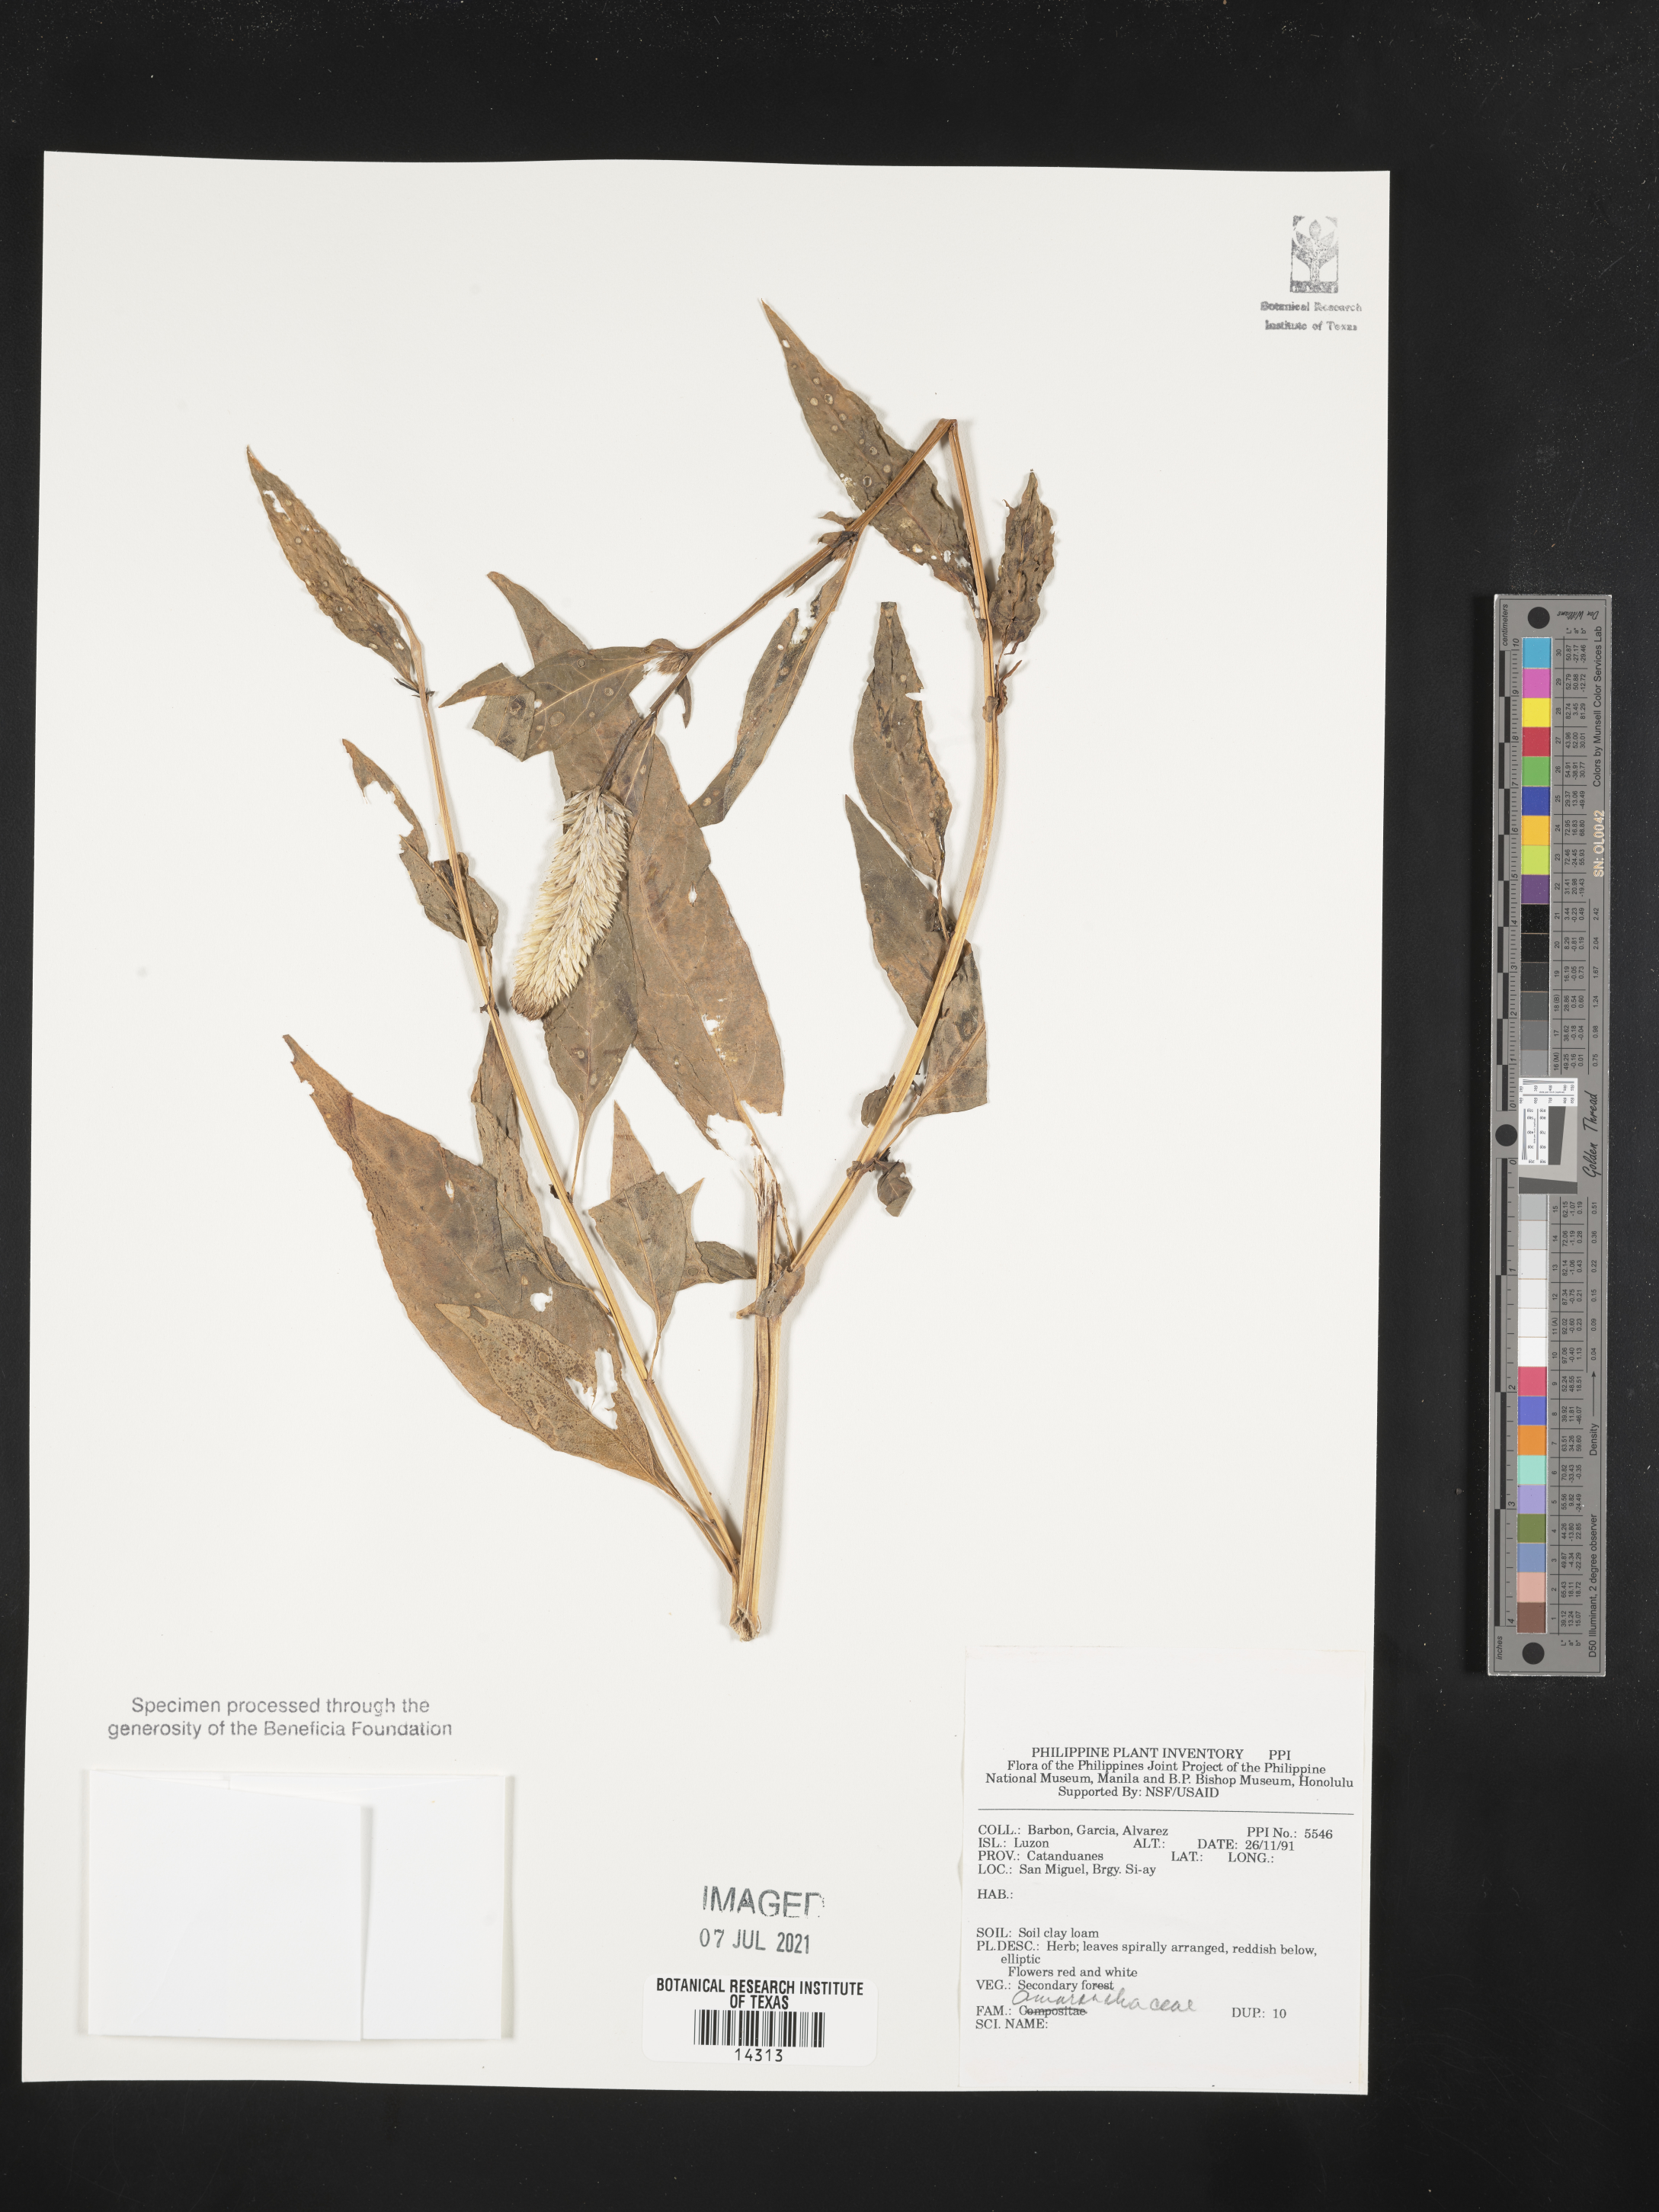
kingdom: Plantae
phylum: Tracheophyta
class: Magnoliopsida
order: Caryophyllales
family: Amaranthaceae
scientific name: Amaranthaceae
